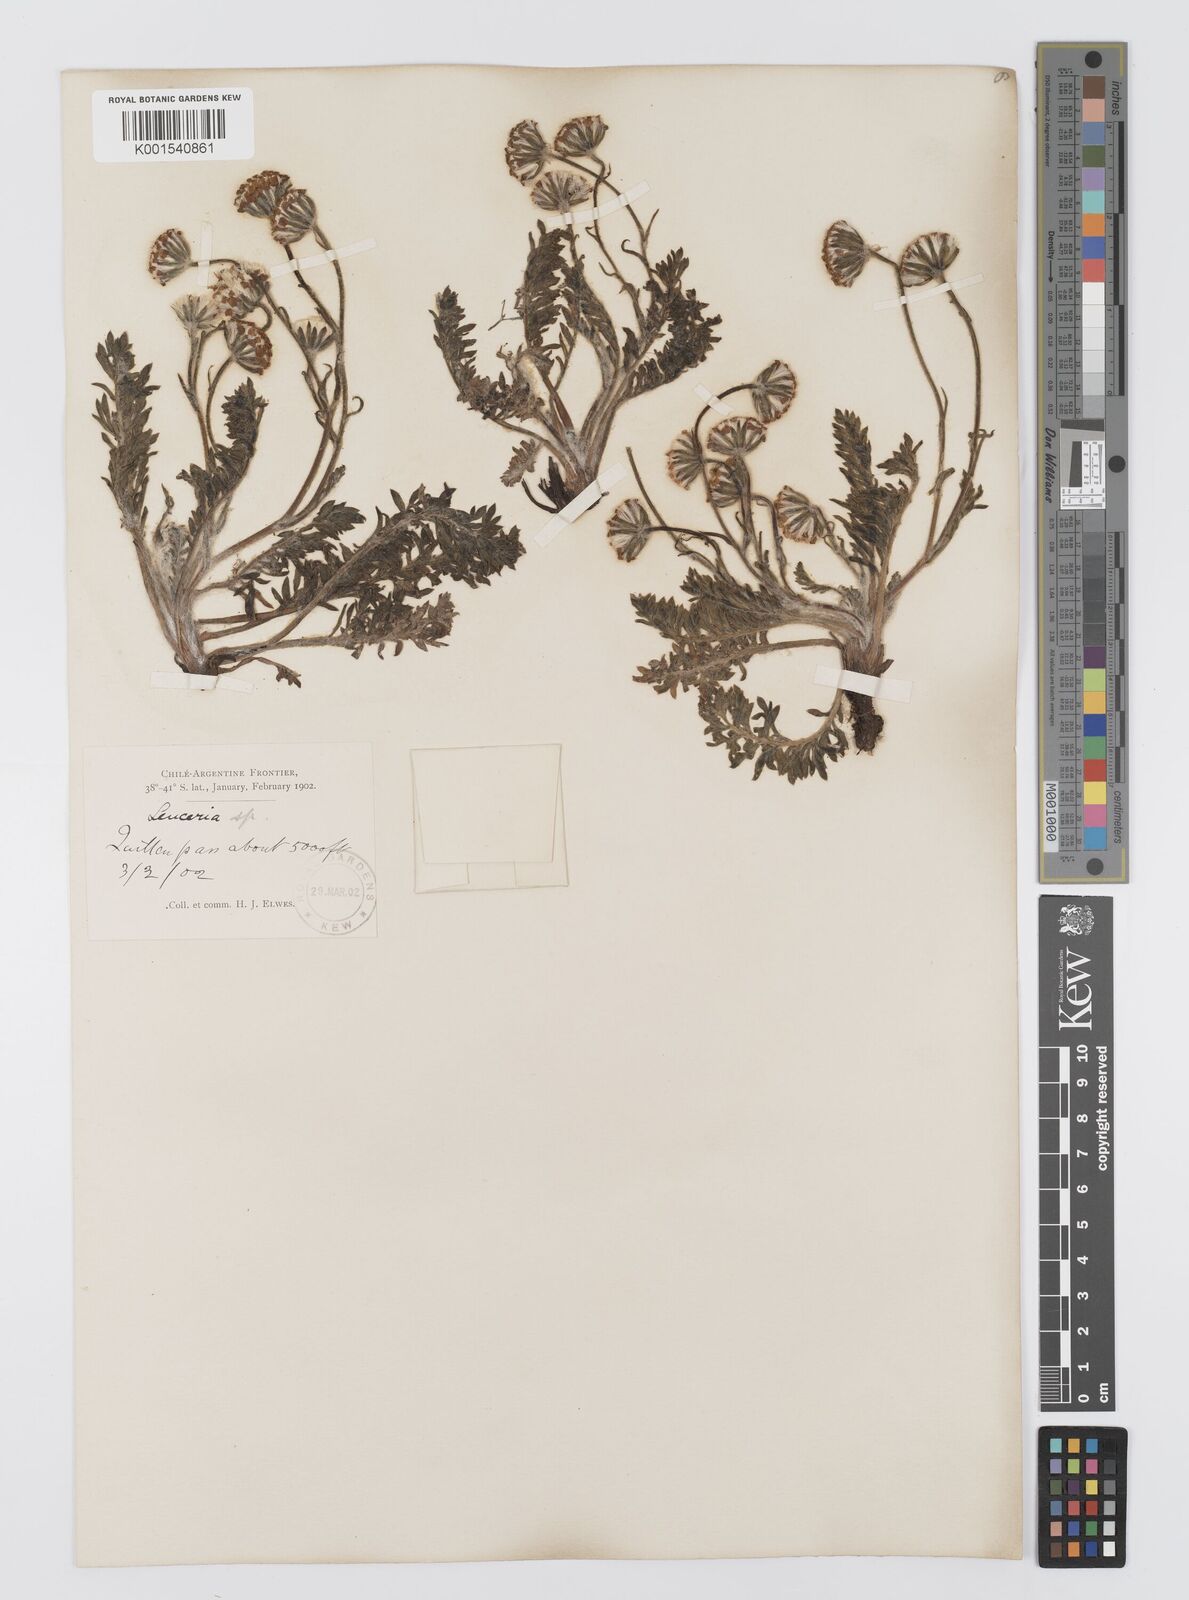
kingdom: Plantae
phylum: Tracheophyta
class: Magnoliopsida
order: Asterales
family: Asteraceae
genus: Leucheria
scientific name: Leucheria millefolium
